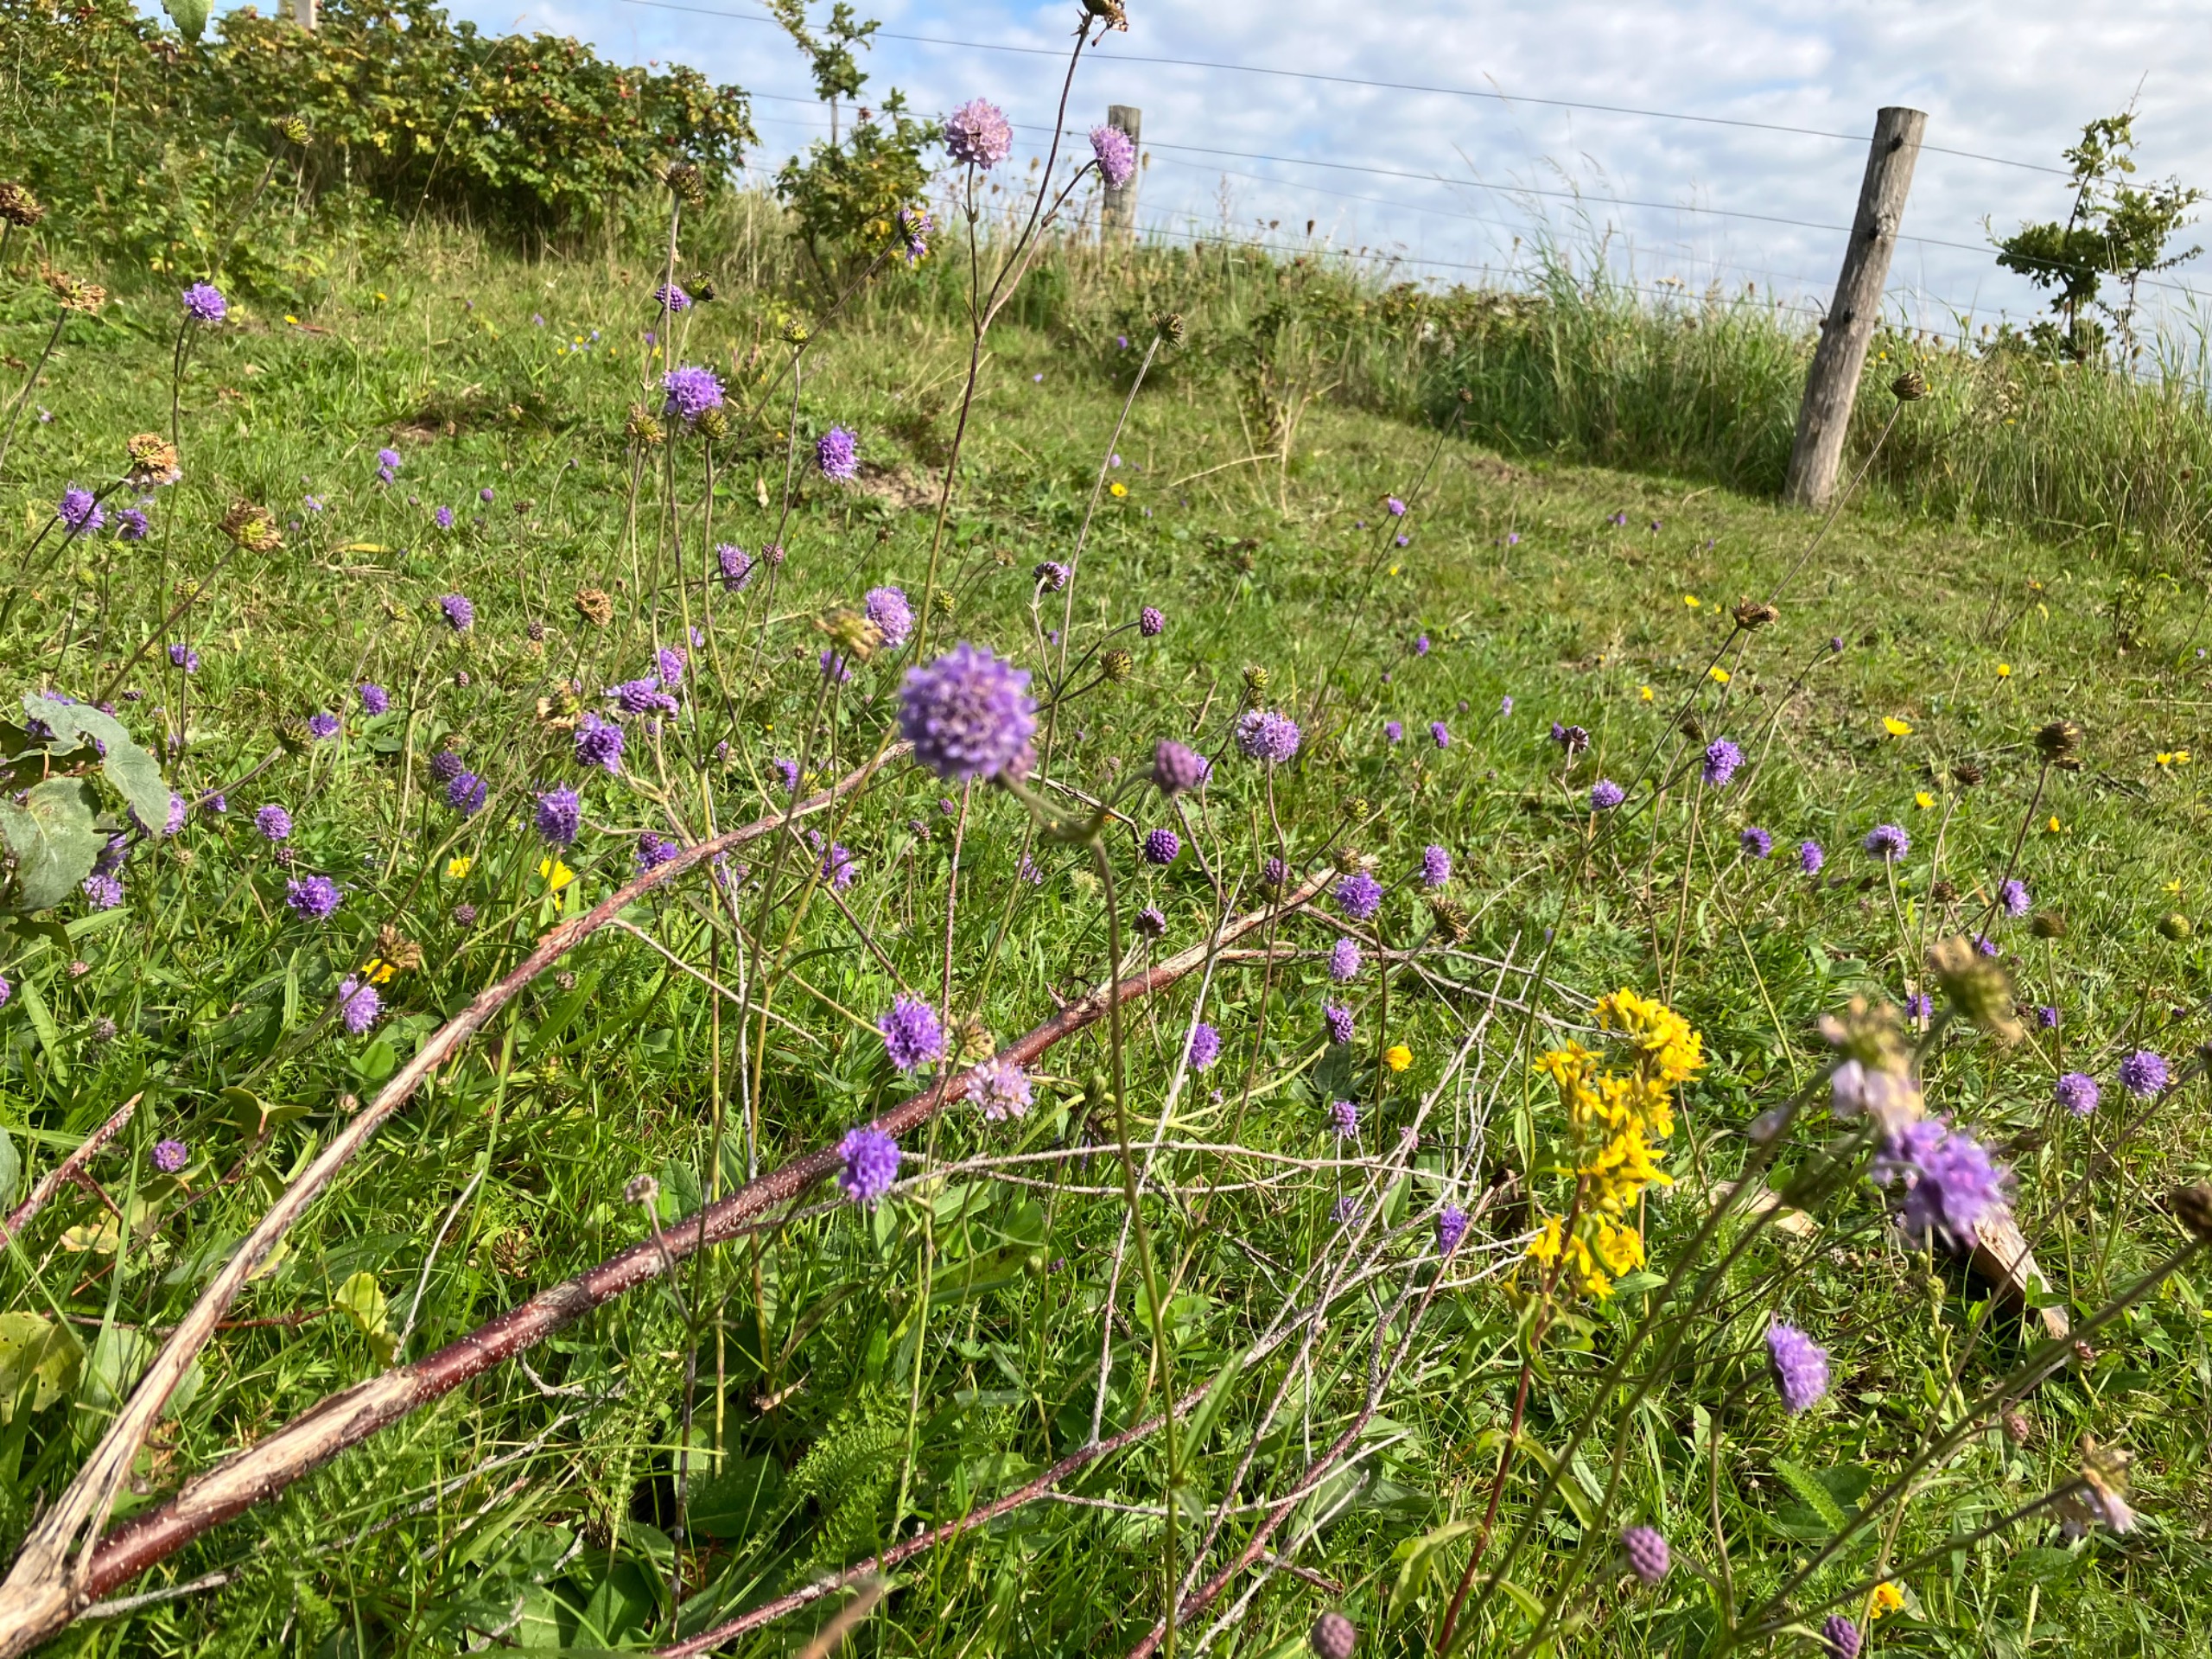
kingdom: Plantae
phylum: Tracheophyta
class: Magnoliopsida
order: Dipsacales
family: Caprifoliaceae
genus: Succisa
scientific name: Succisa pratensis
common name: Djævelsbid
